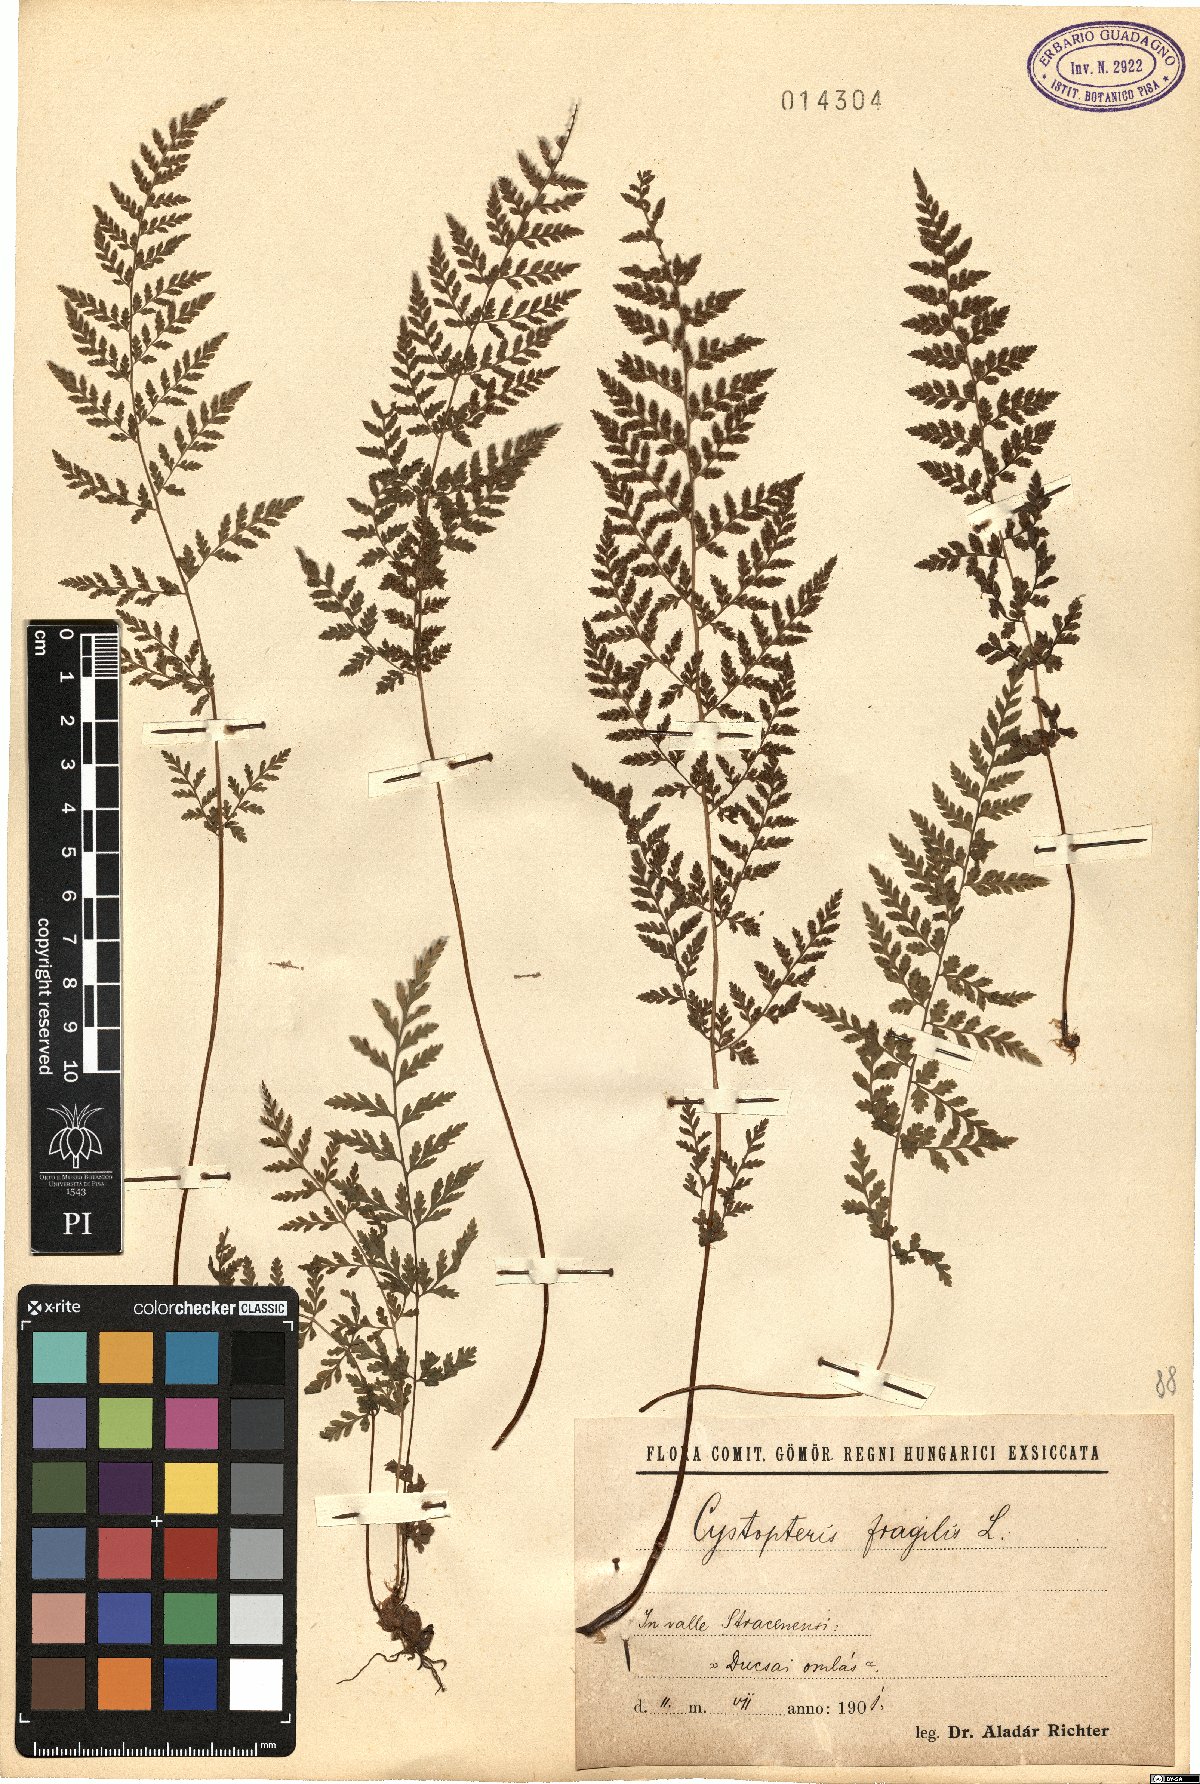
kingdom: Plantae
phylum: Tracheophyta
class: Polypodiopsida
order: Polypodiales
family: Cystopteridaceae
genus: Cystopteris
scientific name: Cystopteris fragilis
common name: Brittle bladder fern
